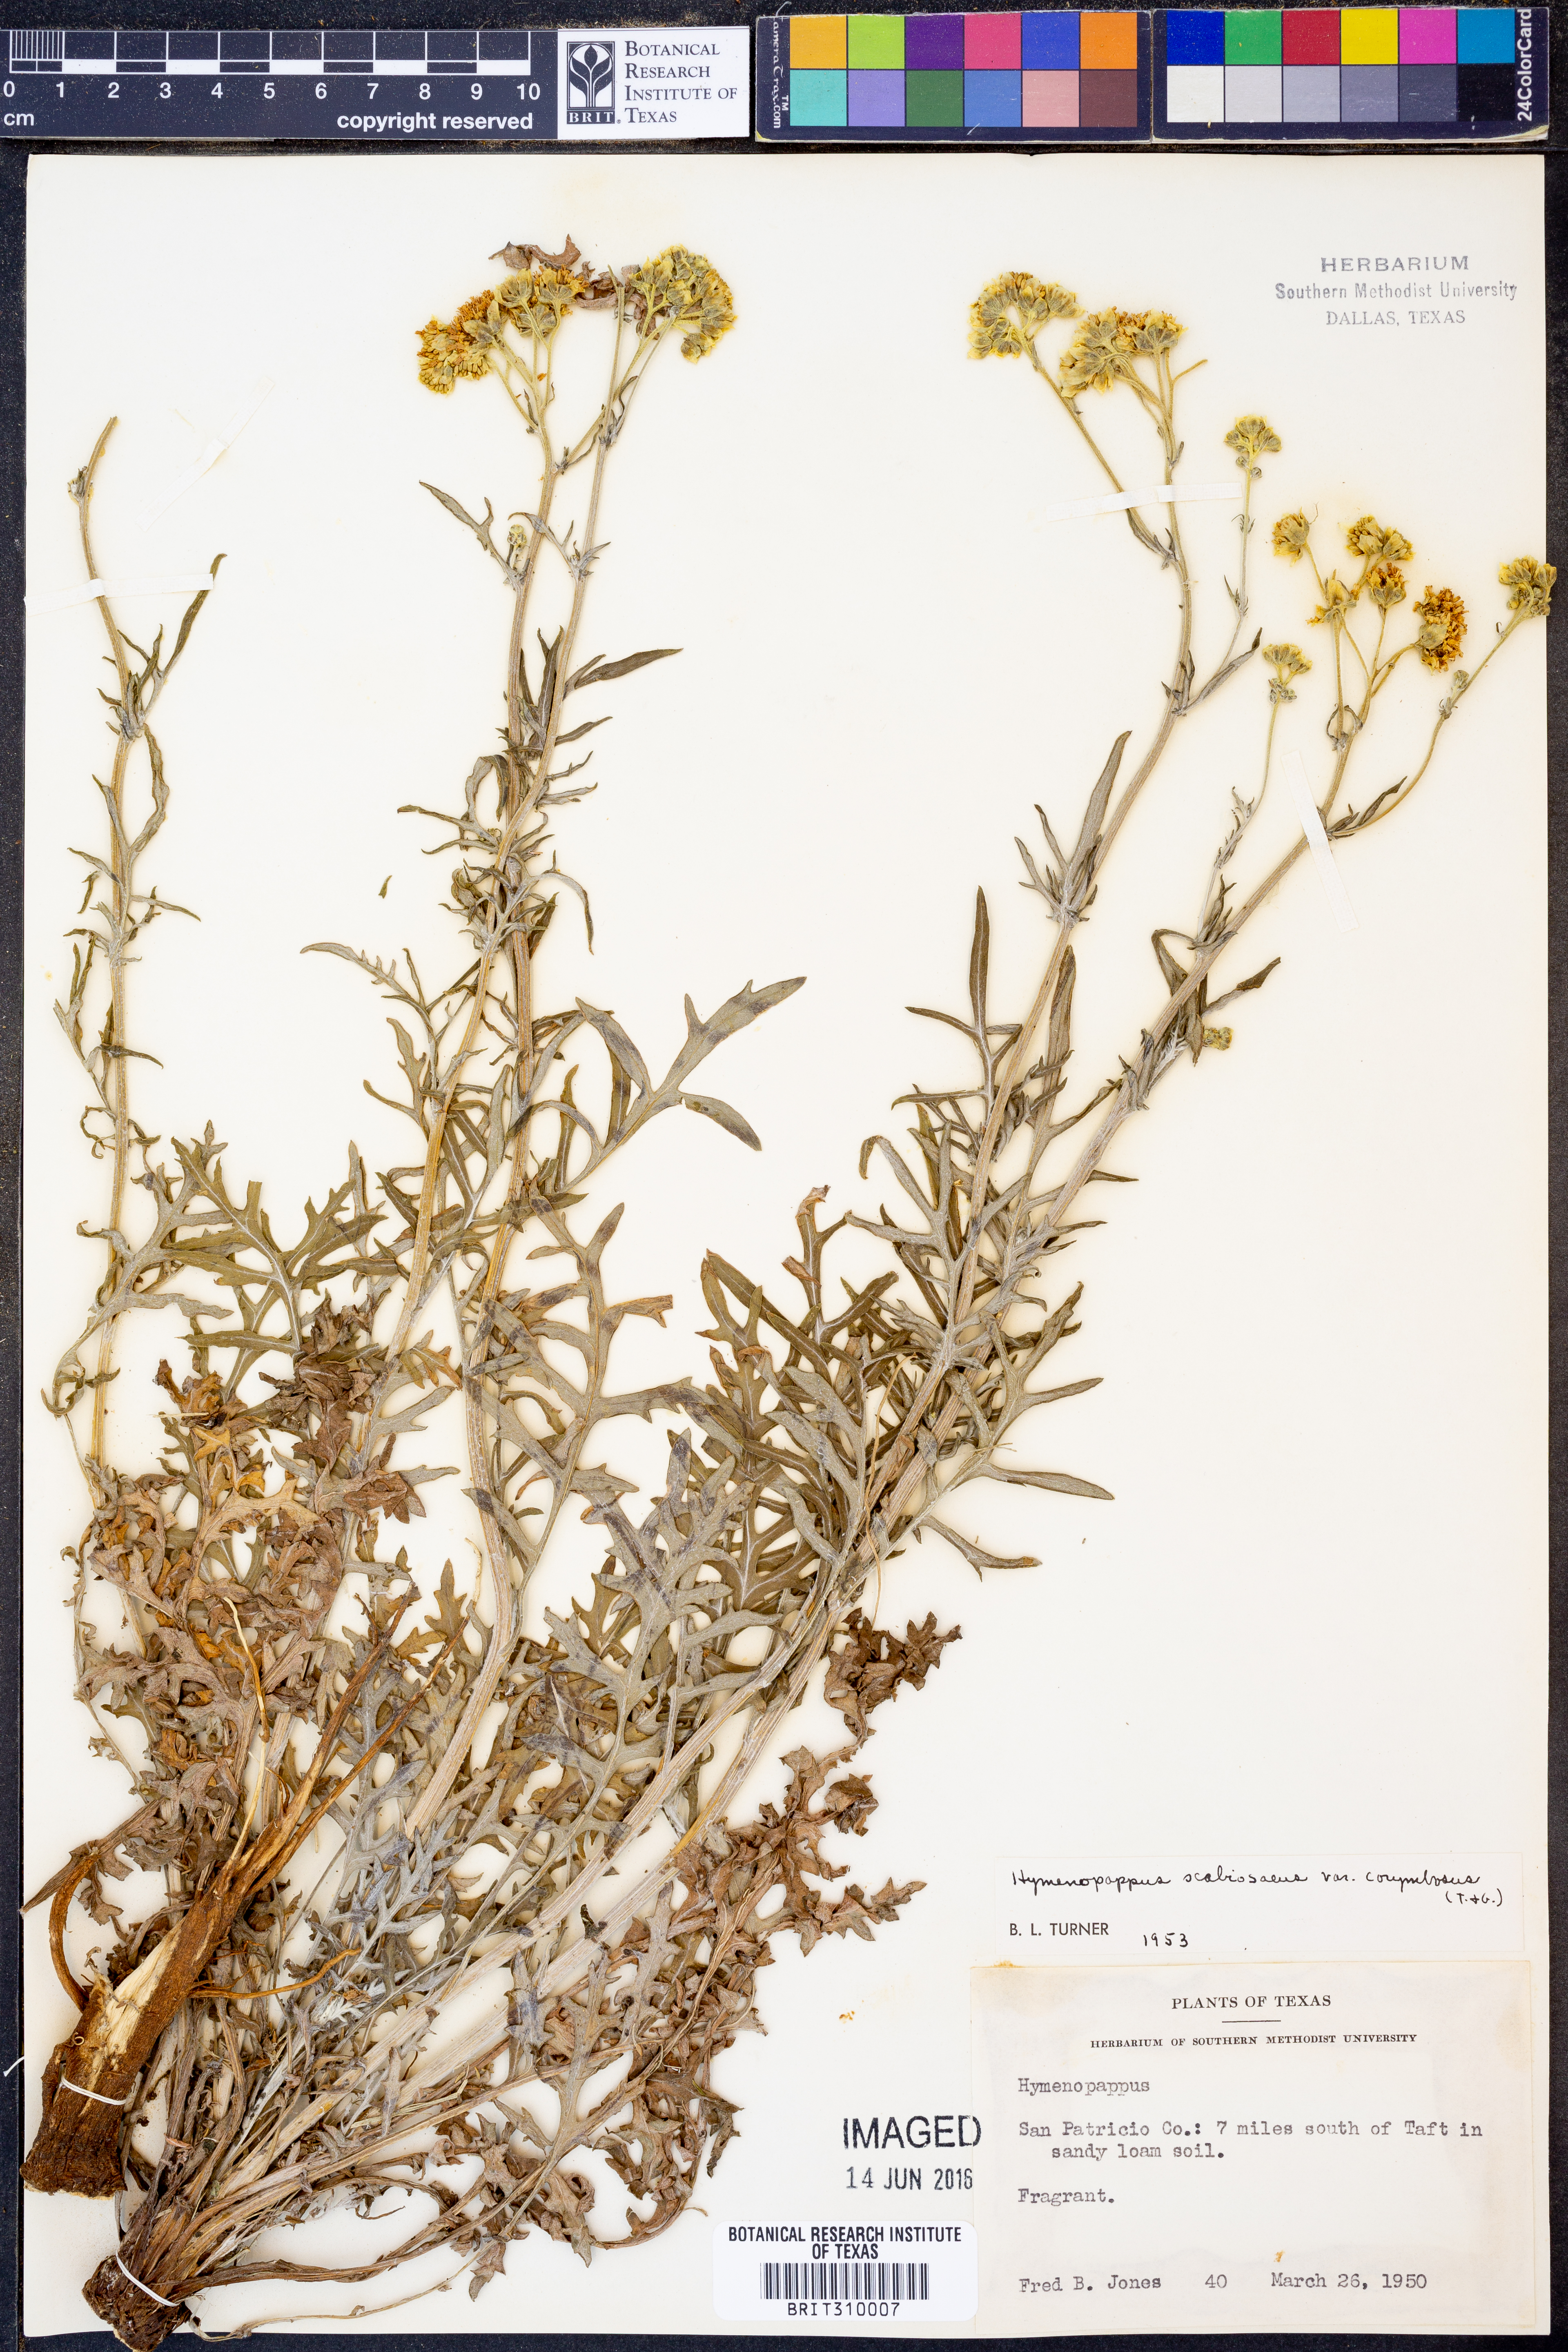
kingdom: Plantae
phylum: Tracheophyta
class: Magnoliopsida
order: Asterales
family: Asteraceae
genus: Hymenopappus
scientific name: Hymenopappus scabiosaeus
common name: Carolina woollywhite
